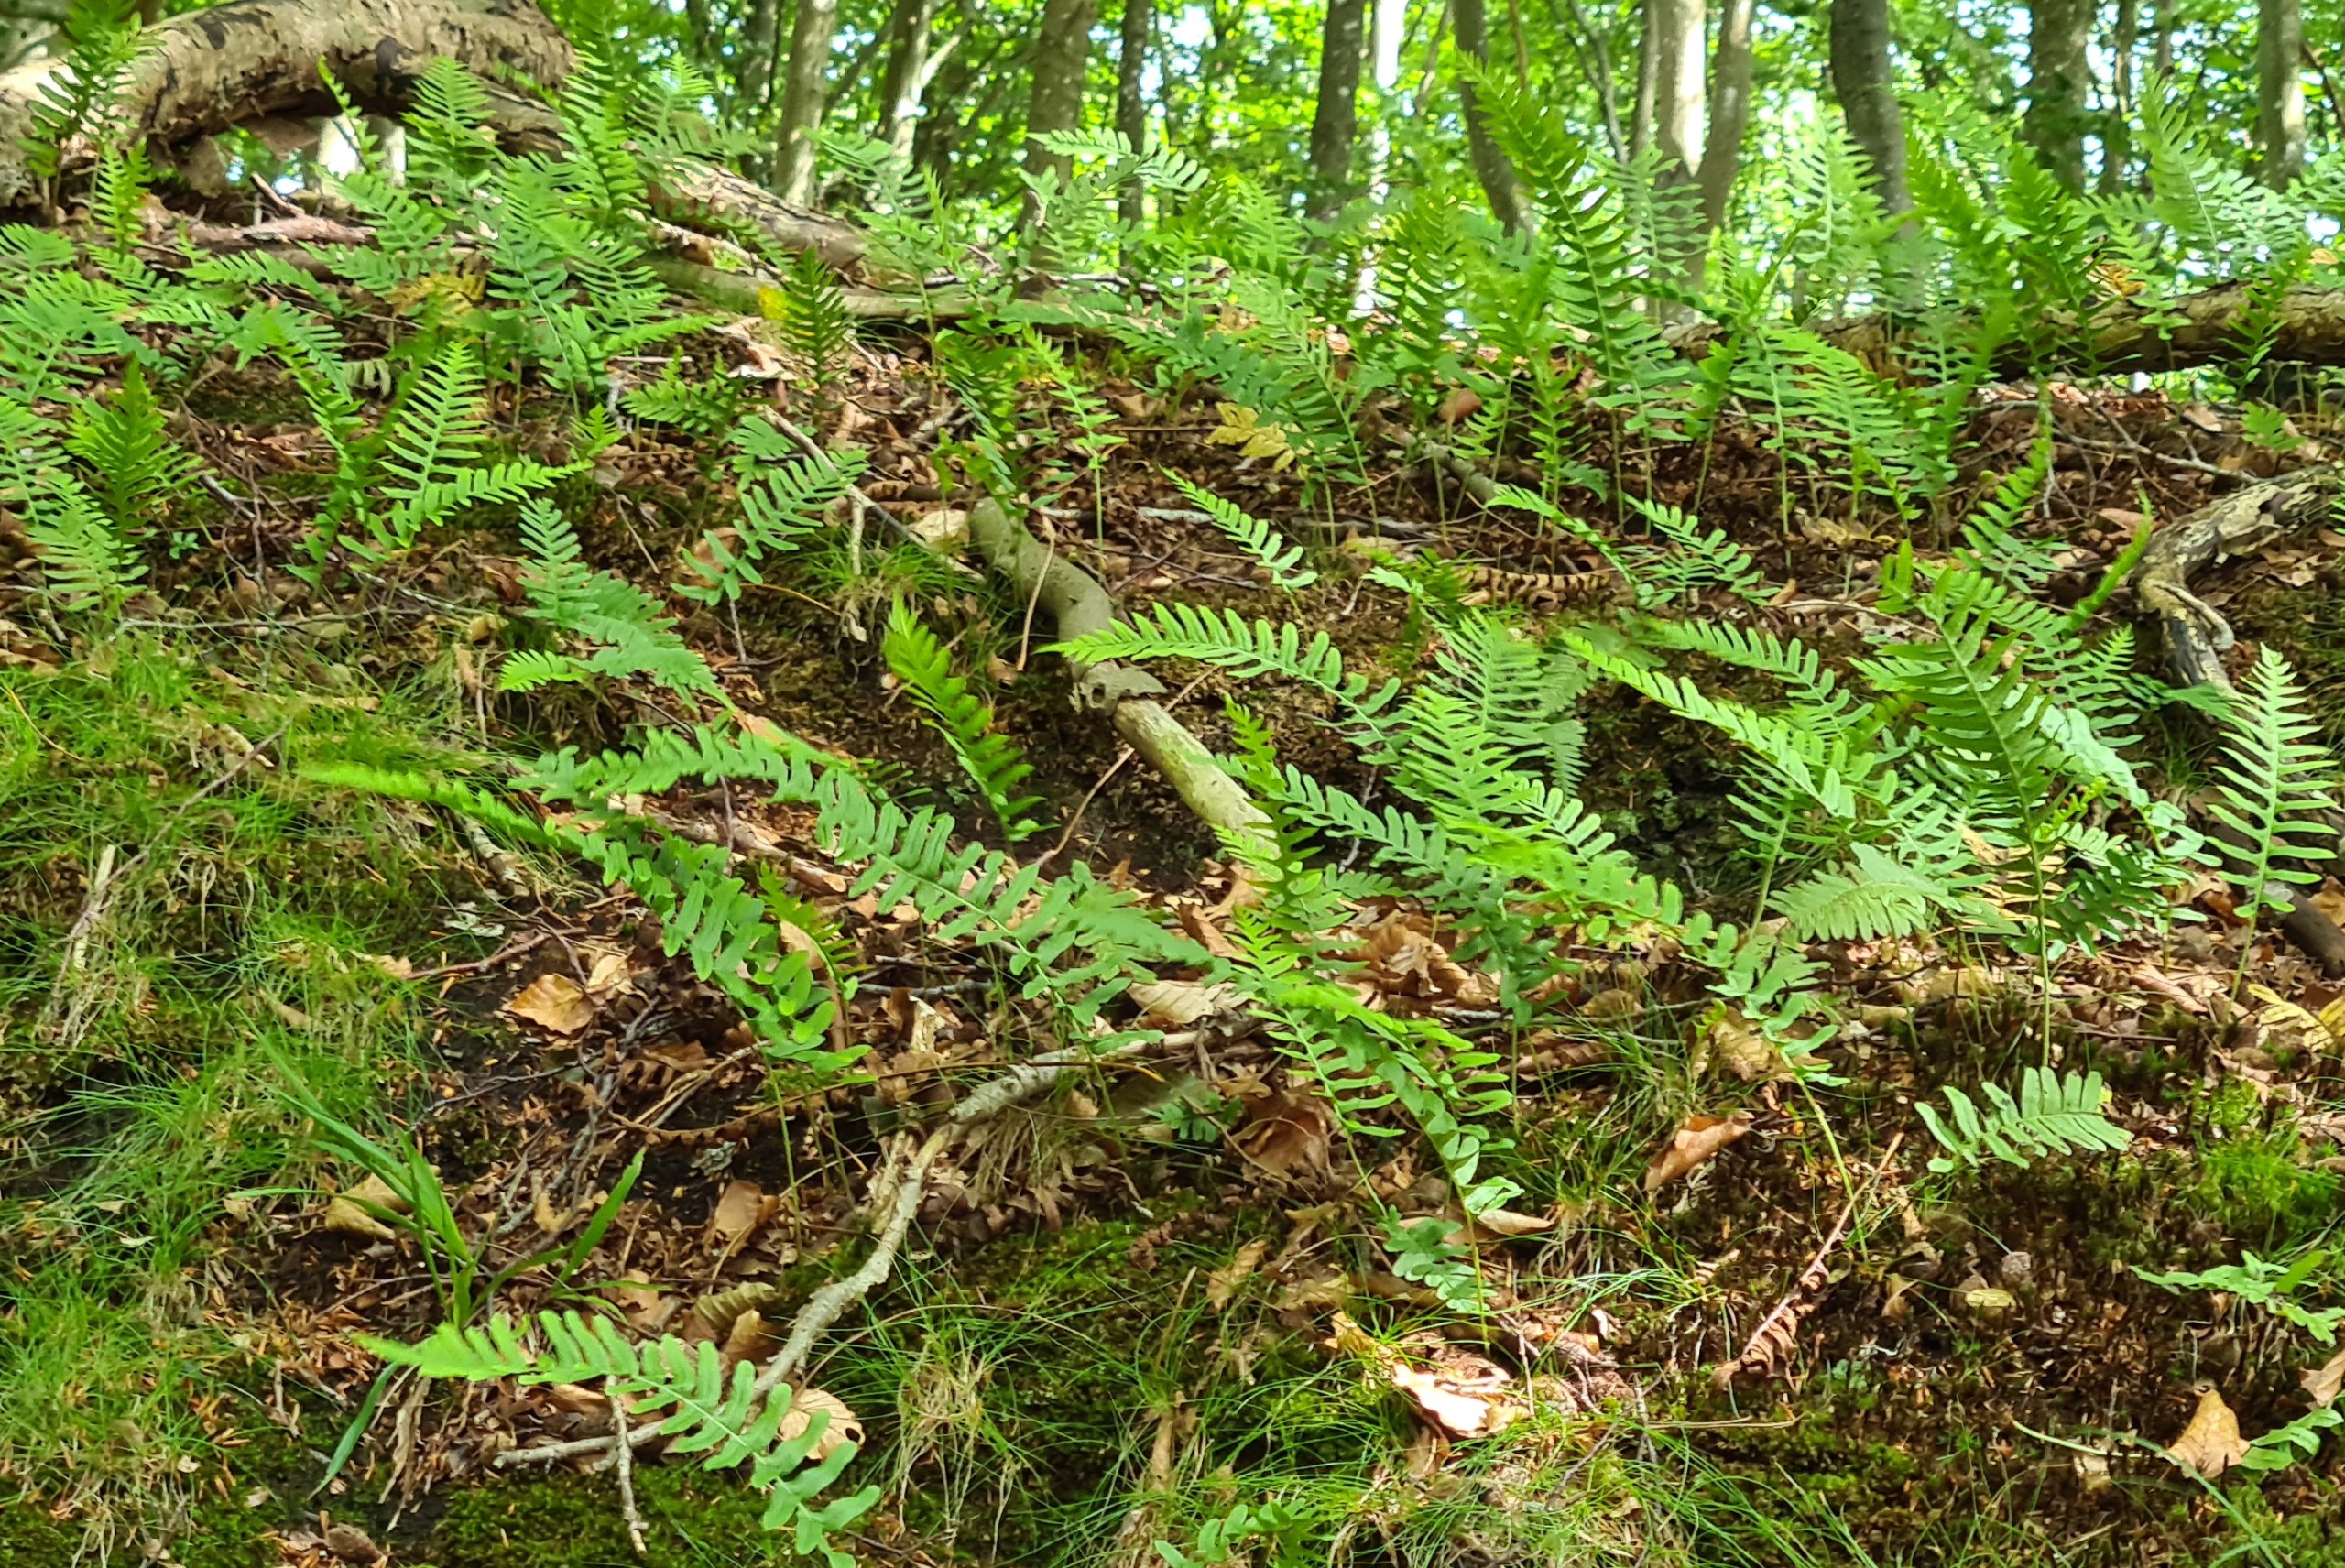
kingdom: Plantae
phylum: Tracheophyta
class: Polypodiopsida
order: Polypodiales
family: Polypodiaceae
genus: Polypodium
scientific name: Polypodium vulgare
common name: Almindelig engelsød
